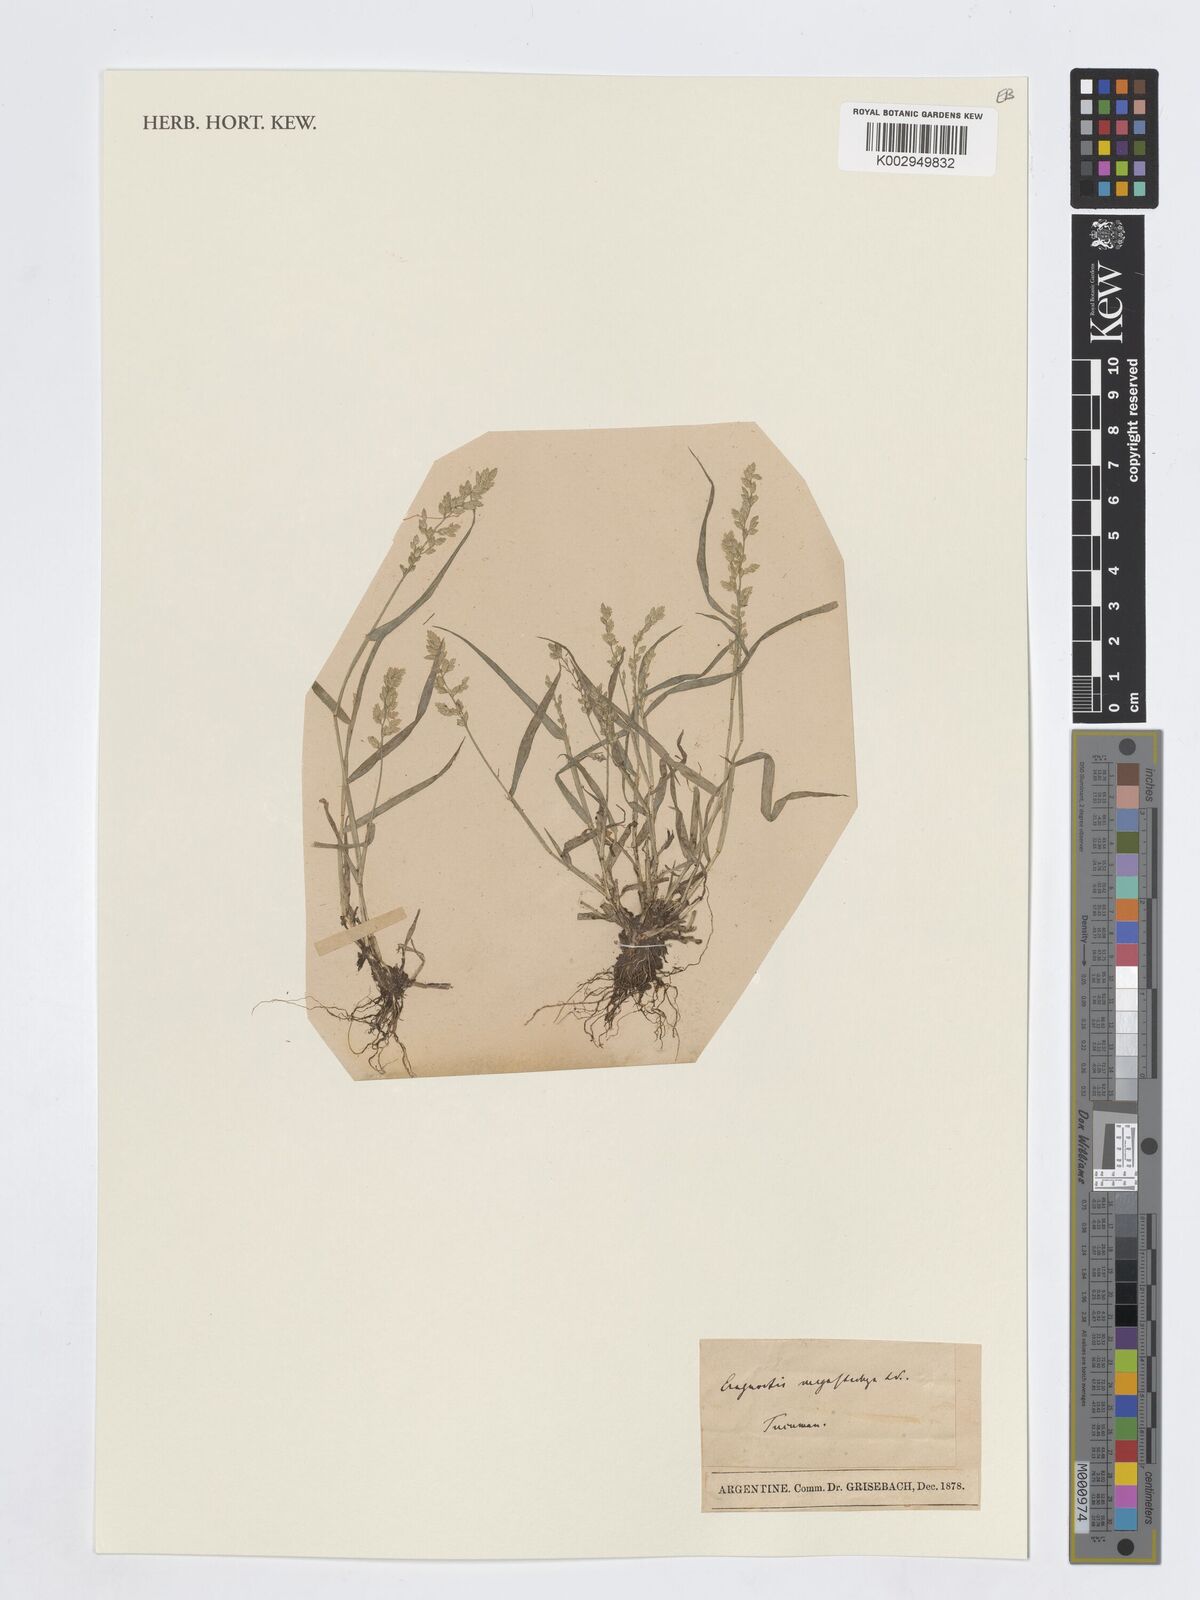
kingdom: Plantae
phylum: Tracheophyta
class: Liliopsida
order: Poales
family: Poaceae
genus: Eragrostis
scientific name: Eragrostis cilianensis
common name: Stinkgrass
